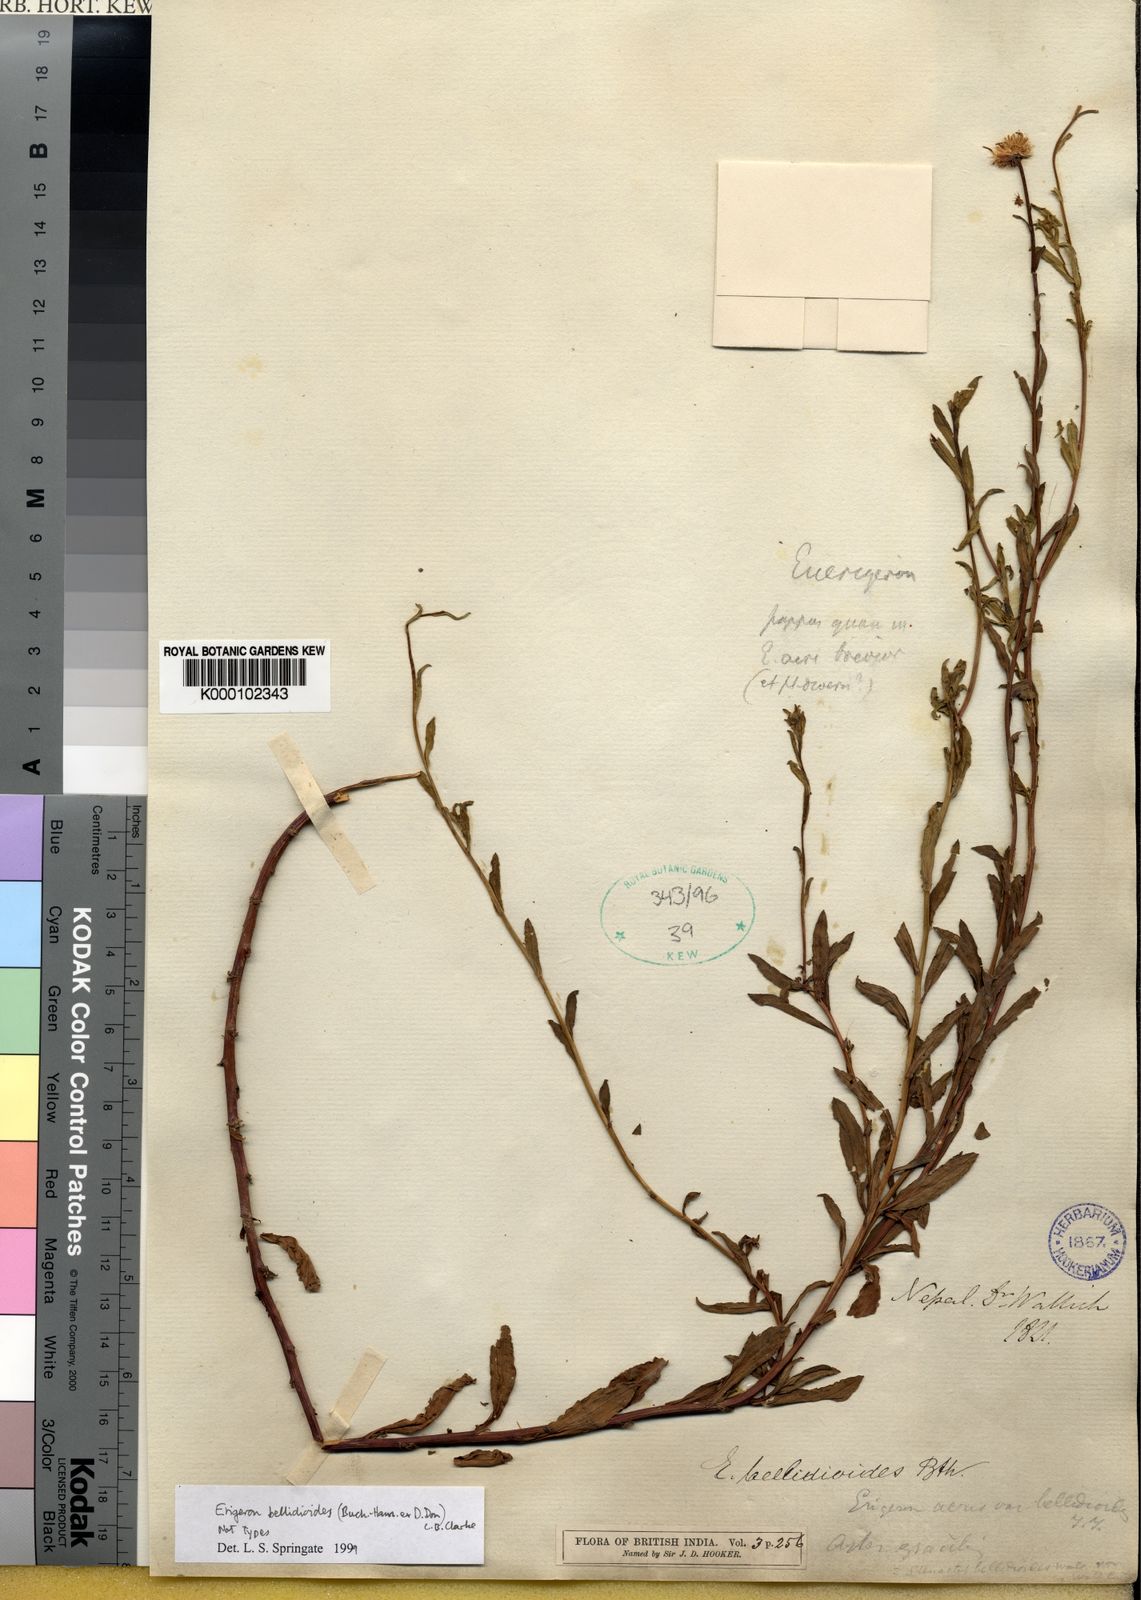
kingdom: Plantae
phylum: Tracheophyta
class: Magnoliopsida
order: Asterales
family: Asteraceae
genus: Erigeron
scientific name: Erigeron emodi
